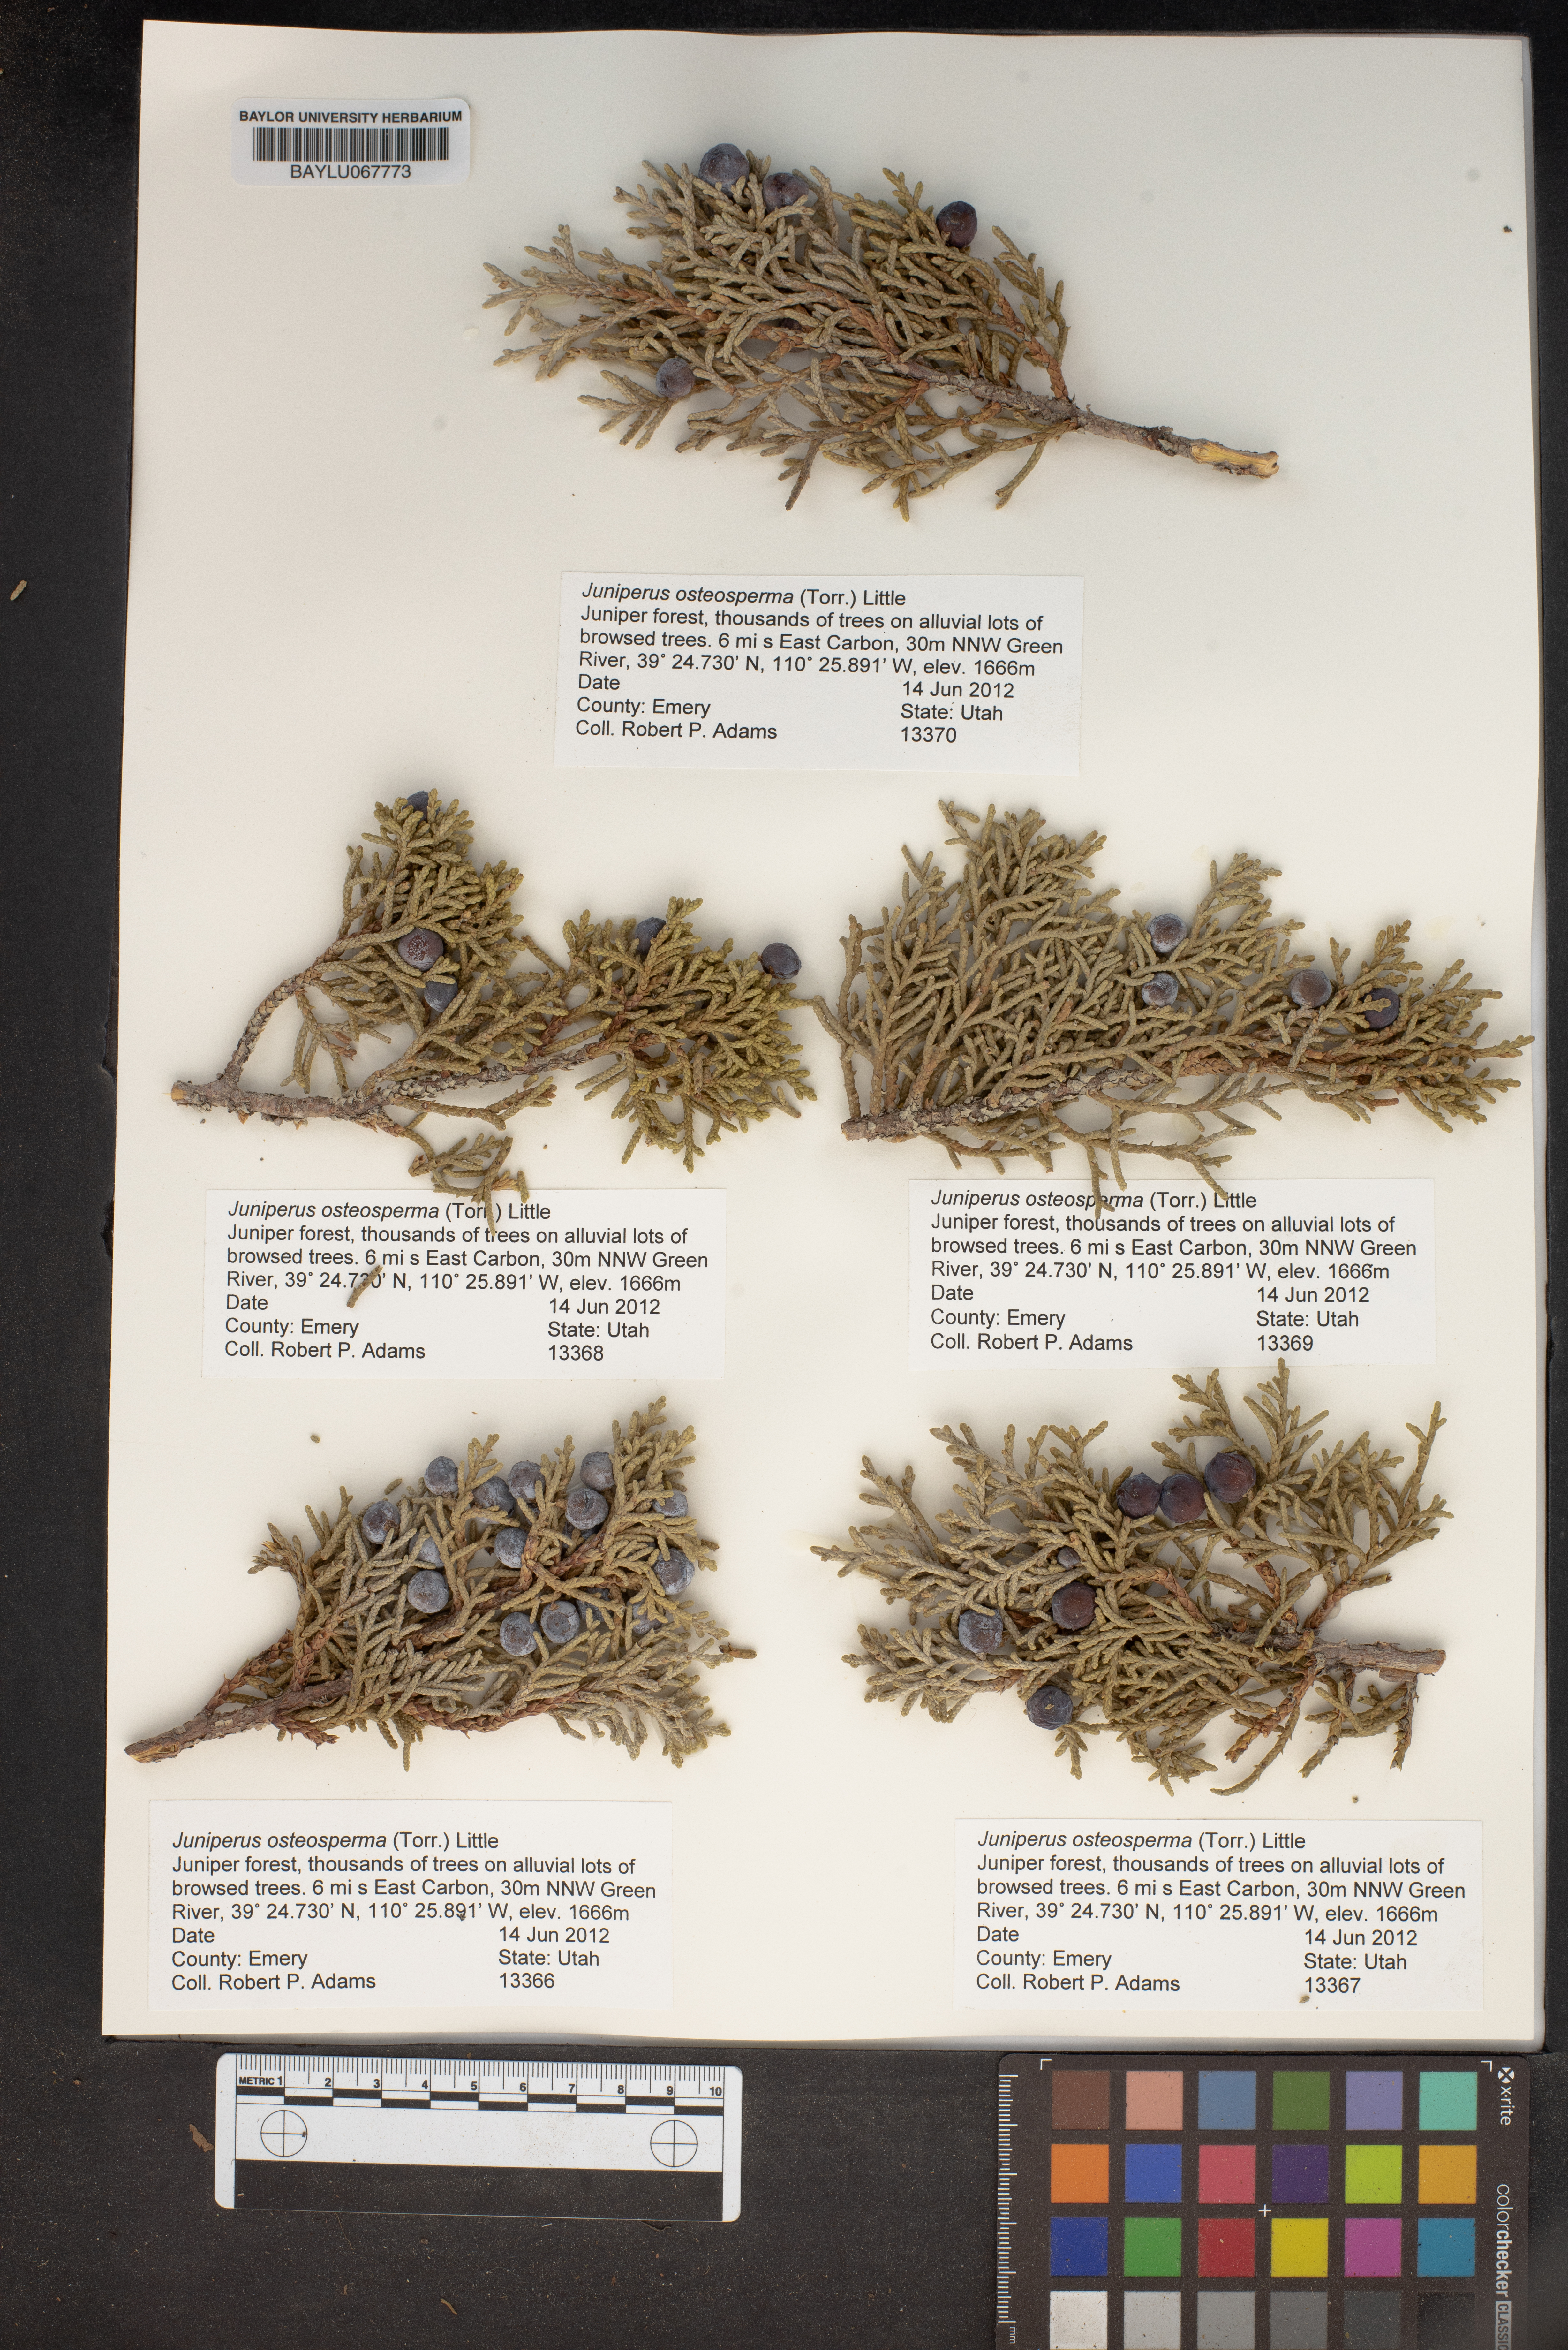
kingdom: Plantae
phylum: Tracheophyta
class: Pinopsida
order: Pinales
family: Cupressaceae
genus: Juniperus
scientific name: Juniperus osteosperma
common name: Utah juniper
